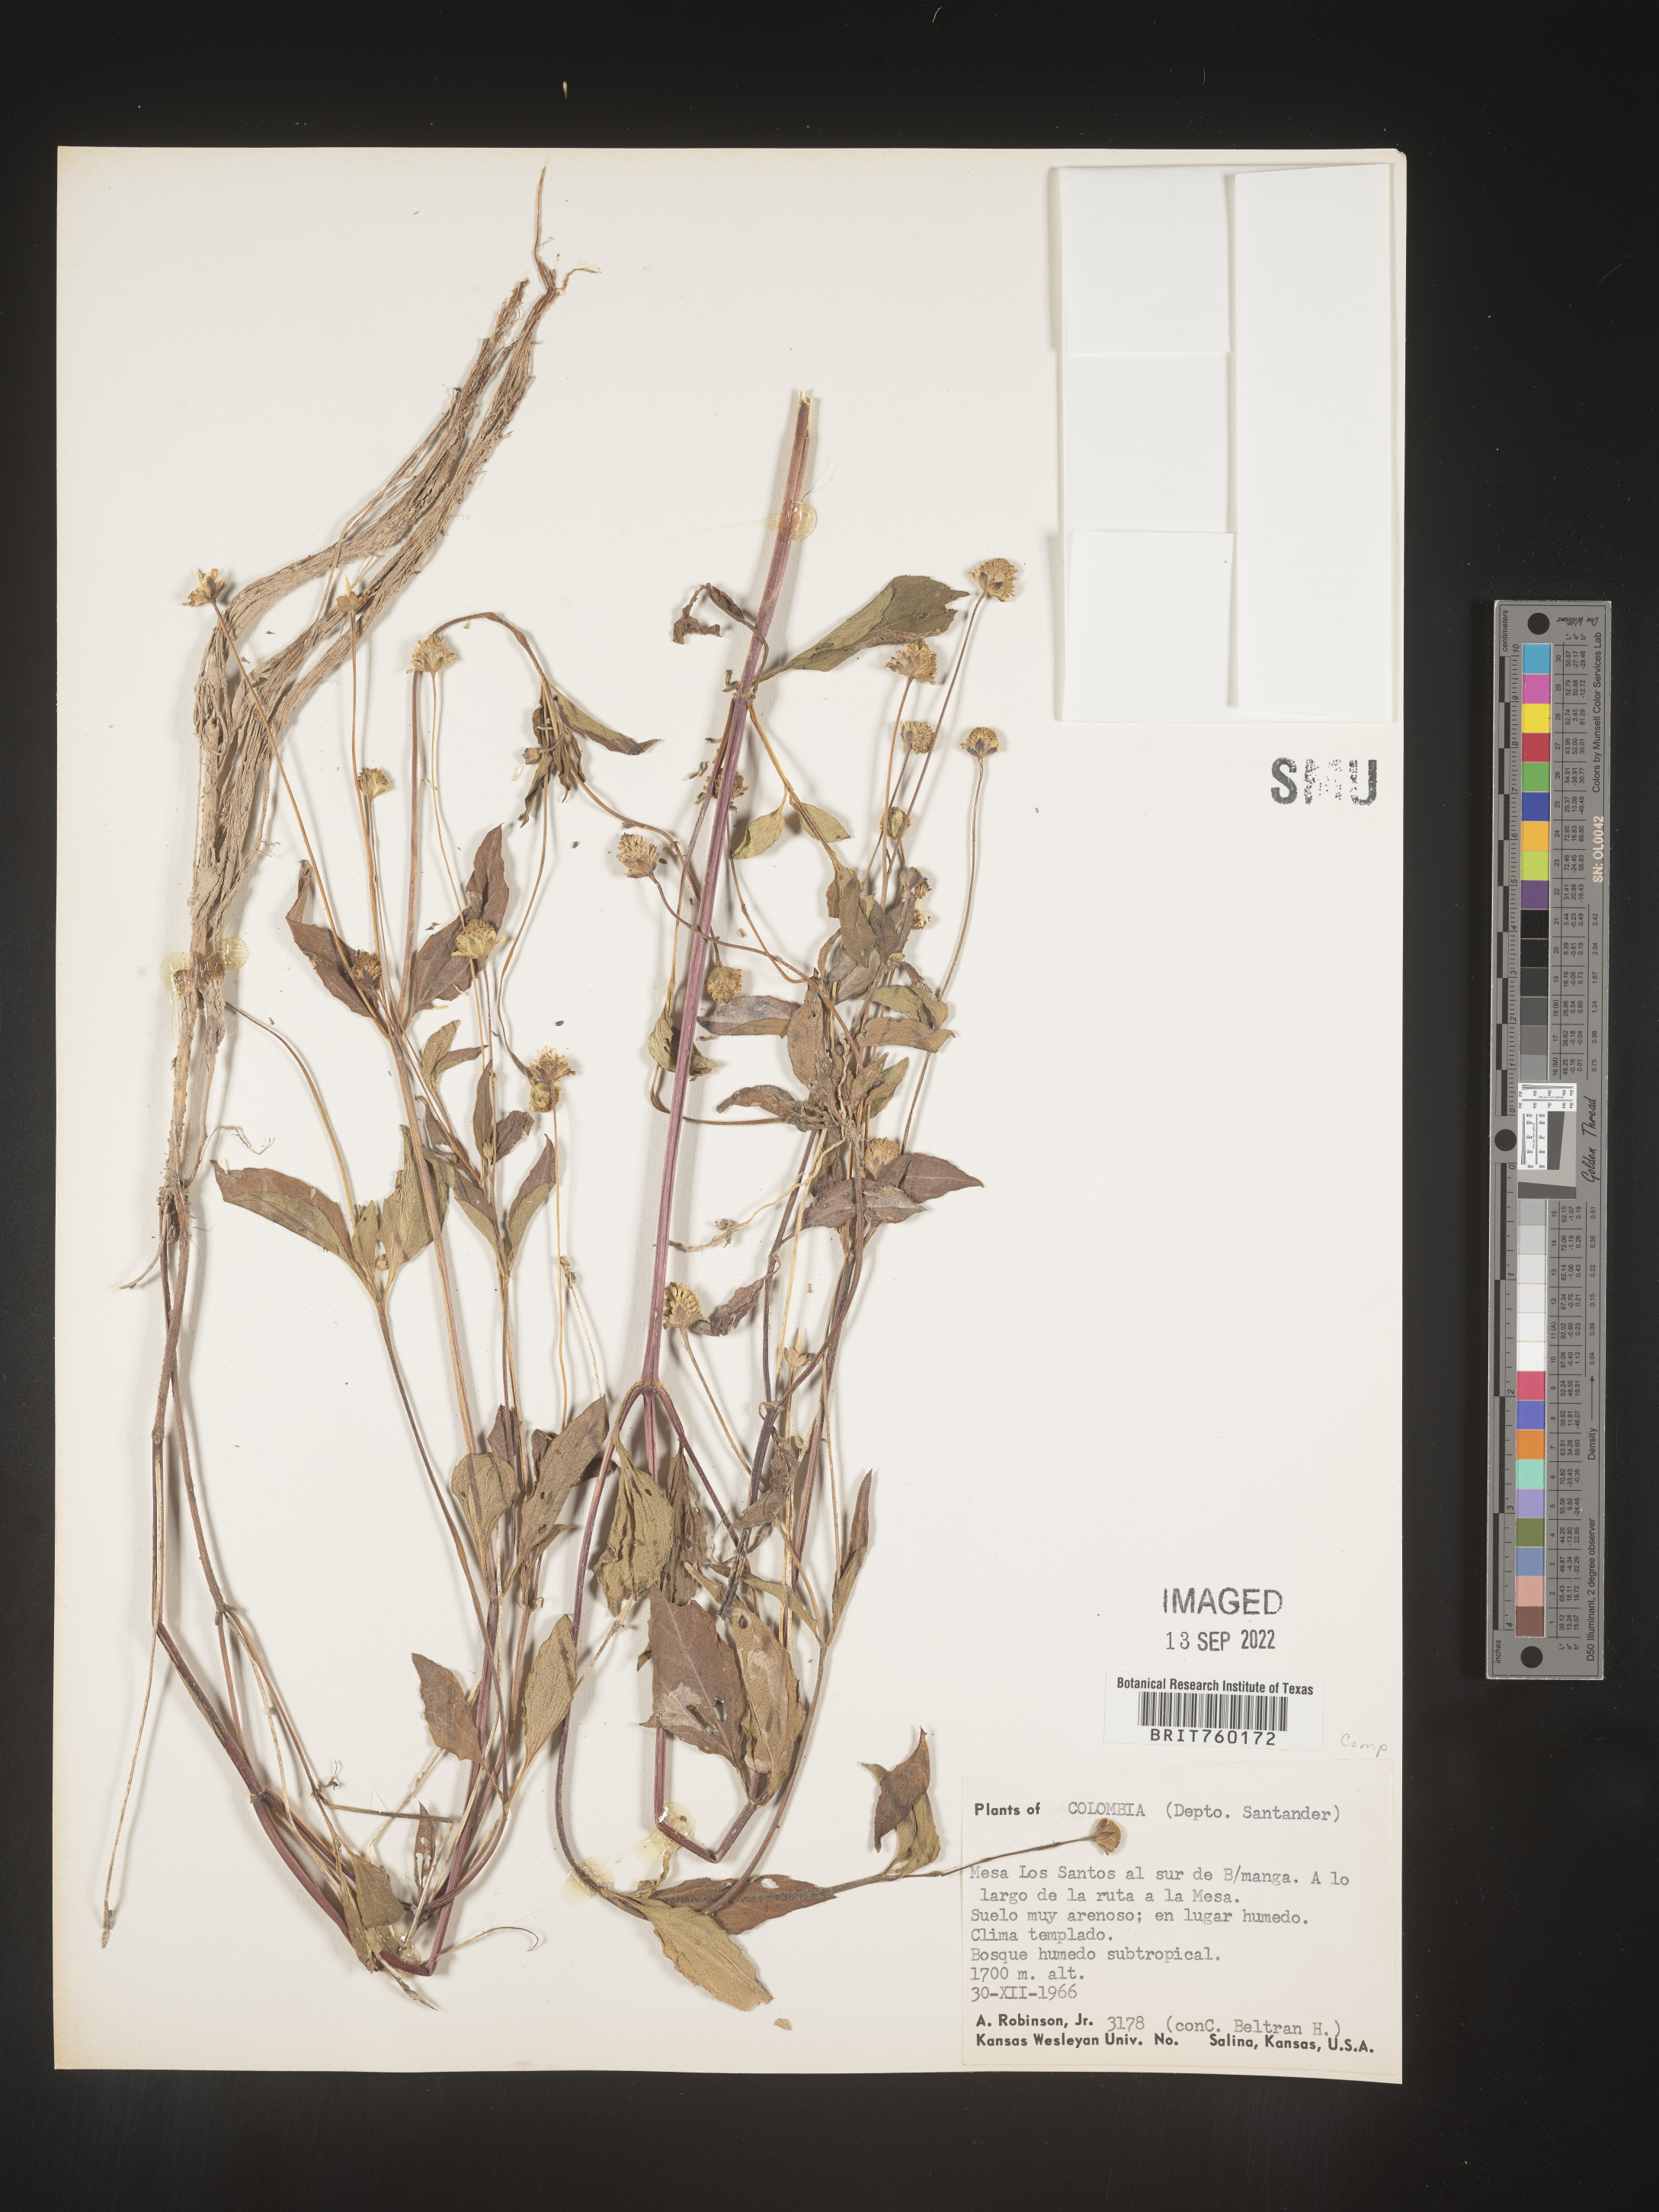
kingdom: Plantae
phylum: Tracheophyta
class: Magnoliopsida
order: Asterales
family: Asteraceae
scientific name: Asteraceae
